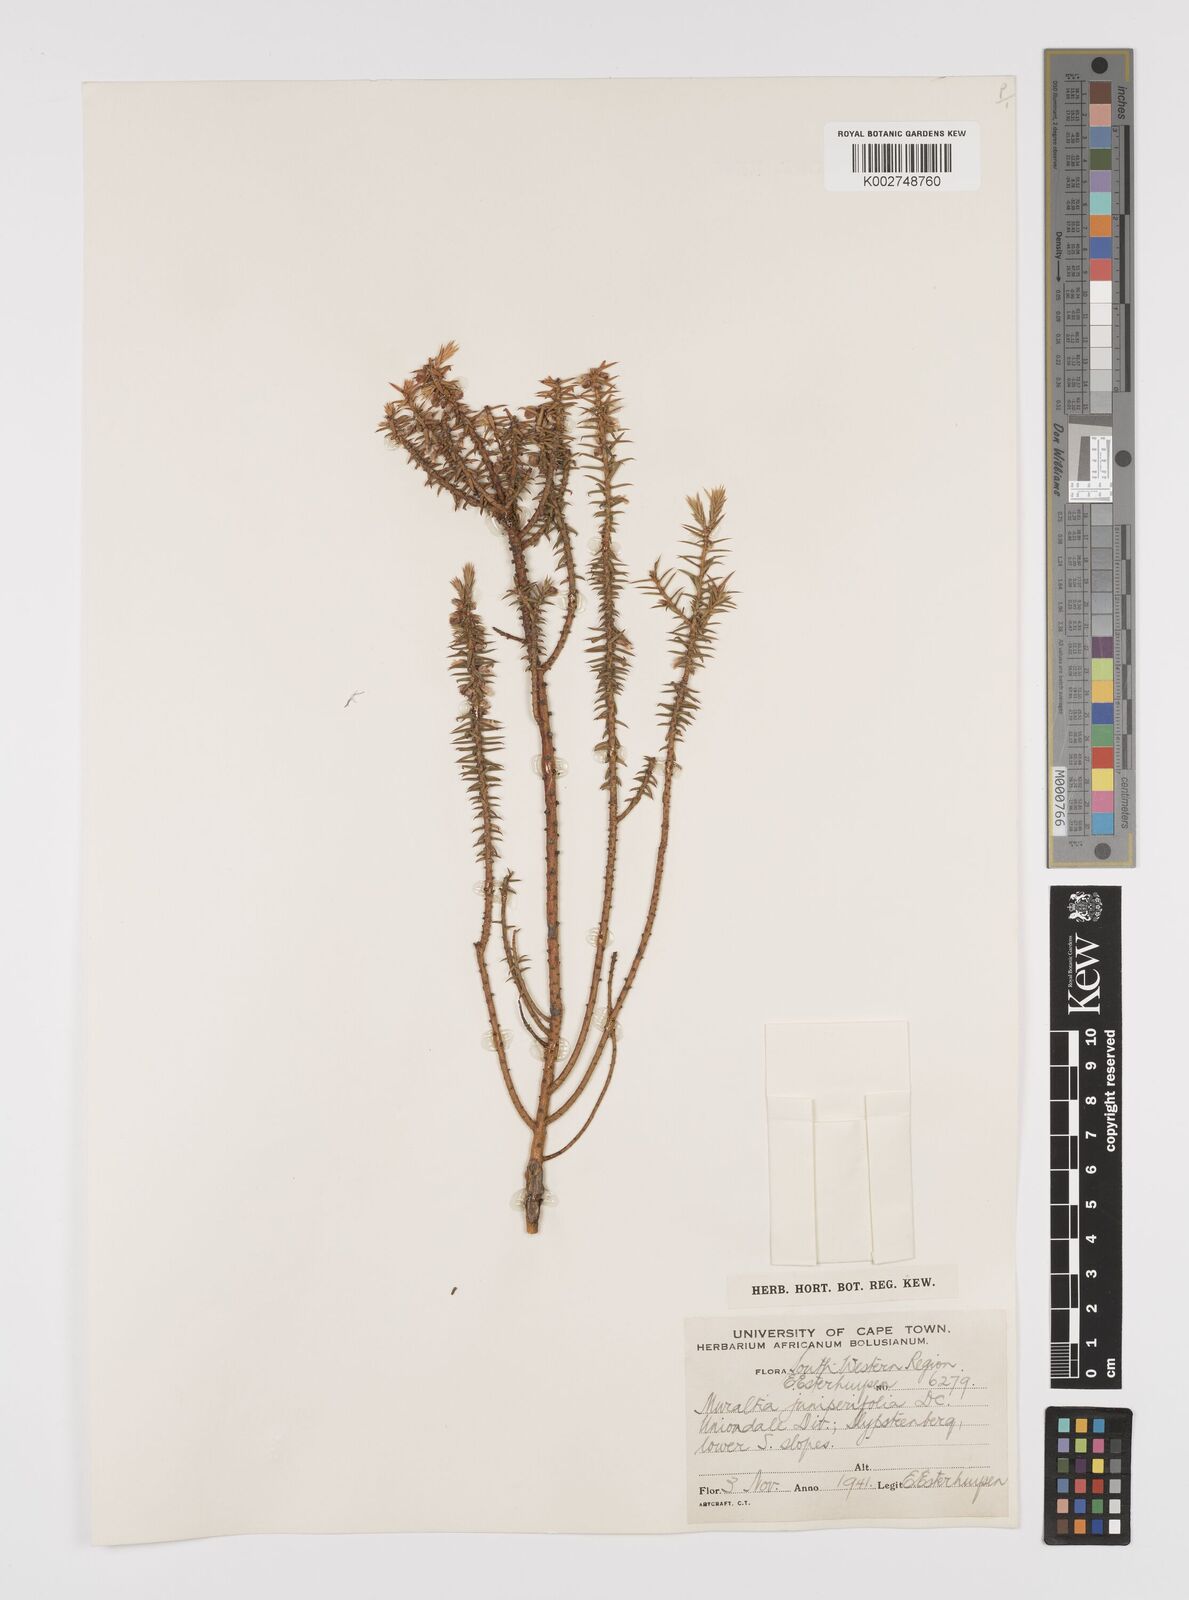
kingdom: Plantae
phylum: Tracheophyta
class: Magnoliopsida
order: Fabales
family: Polygalaceae
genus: Muraltia
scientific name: Muraltia juniperifolia
